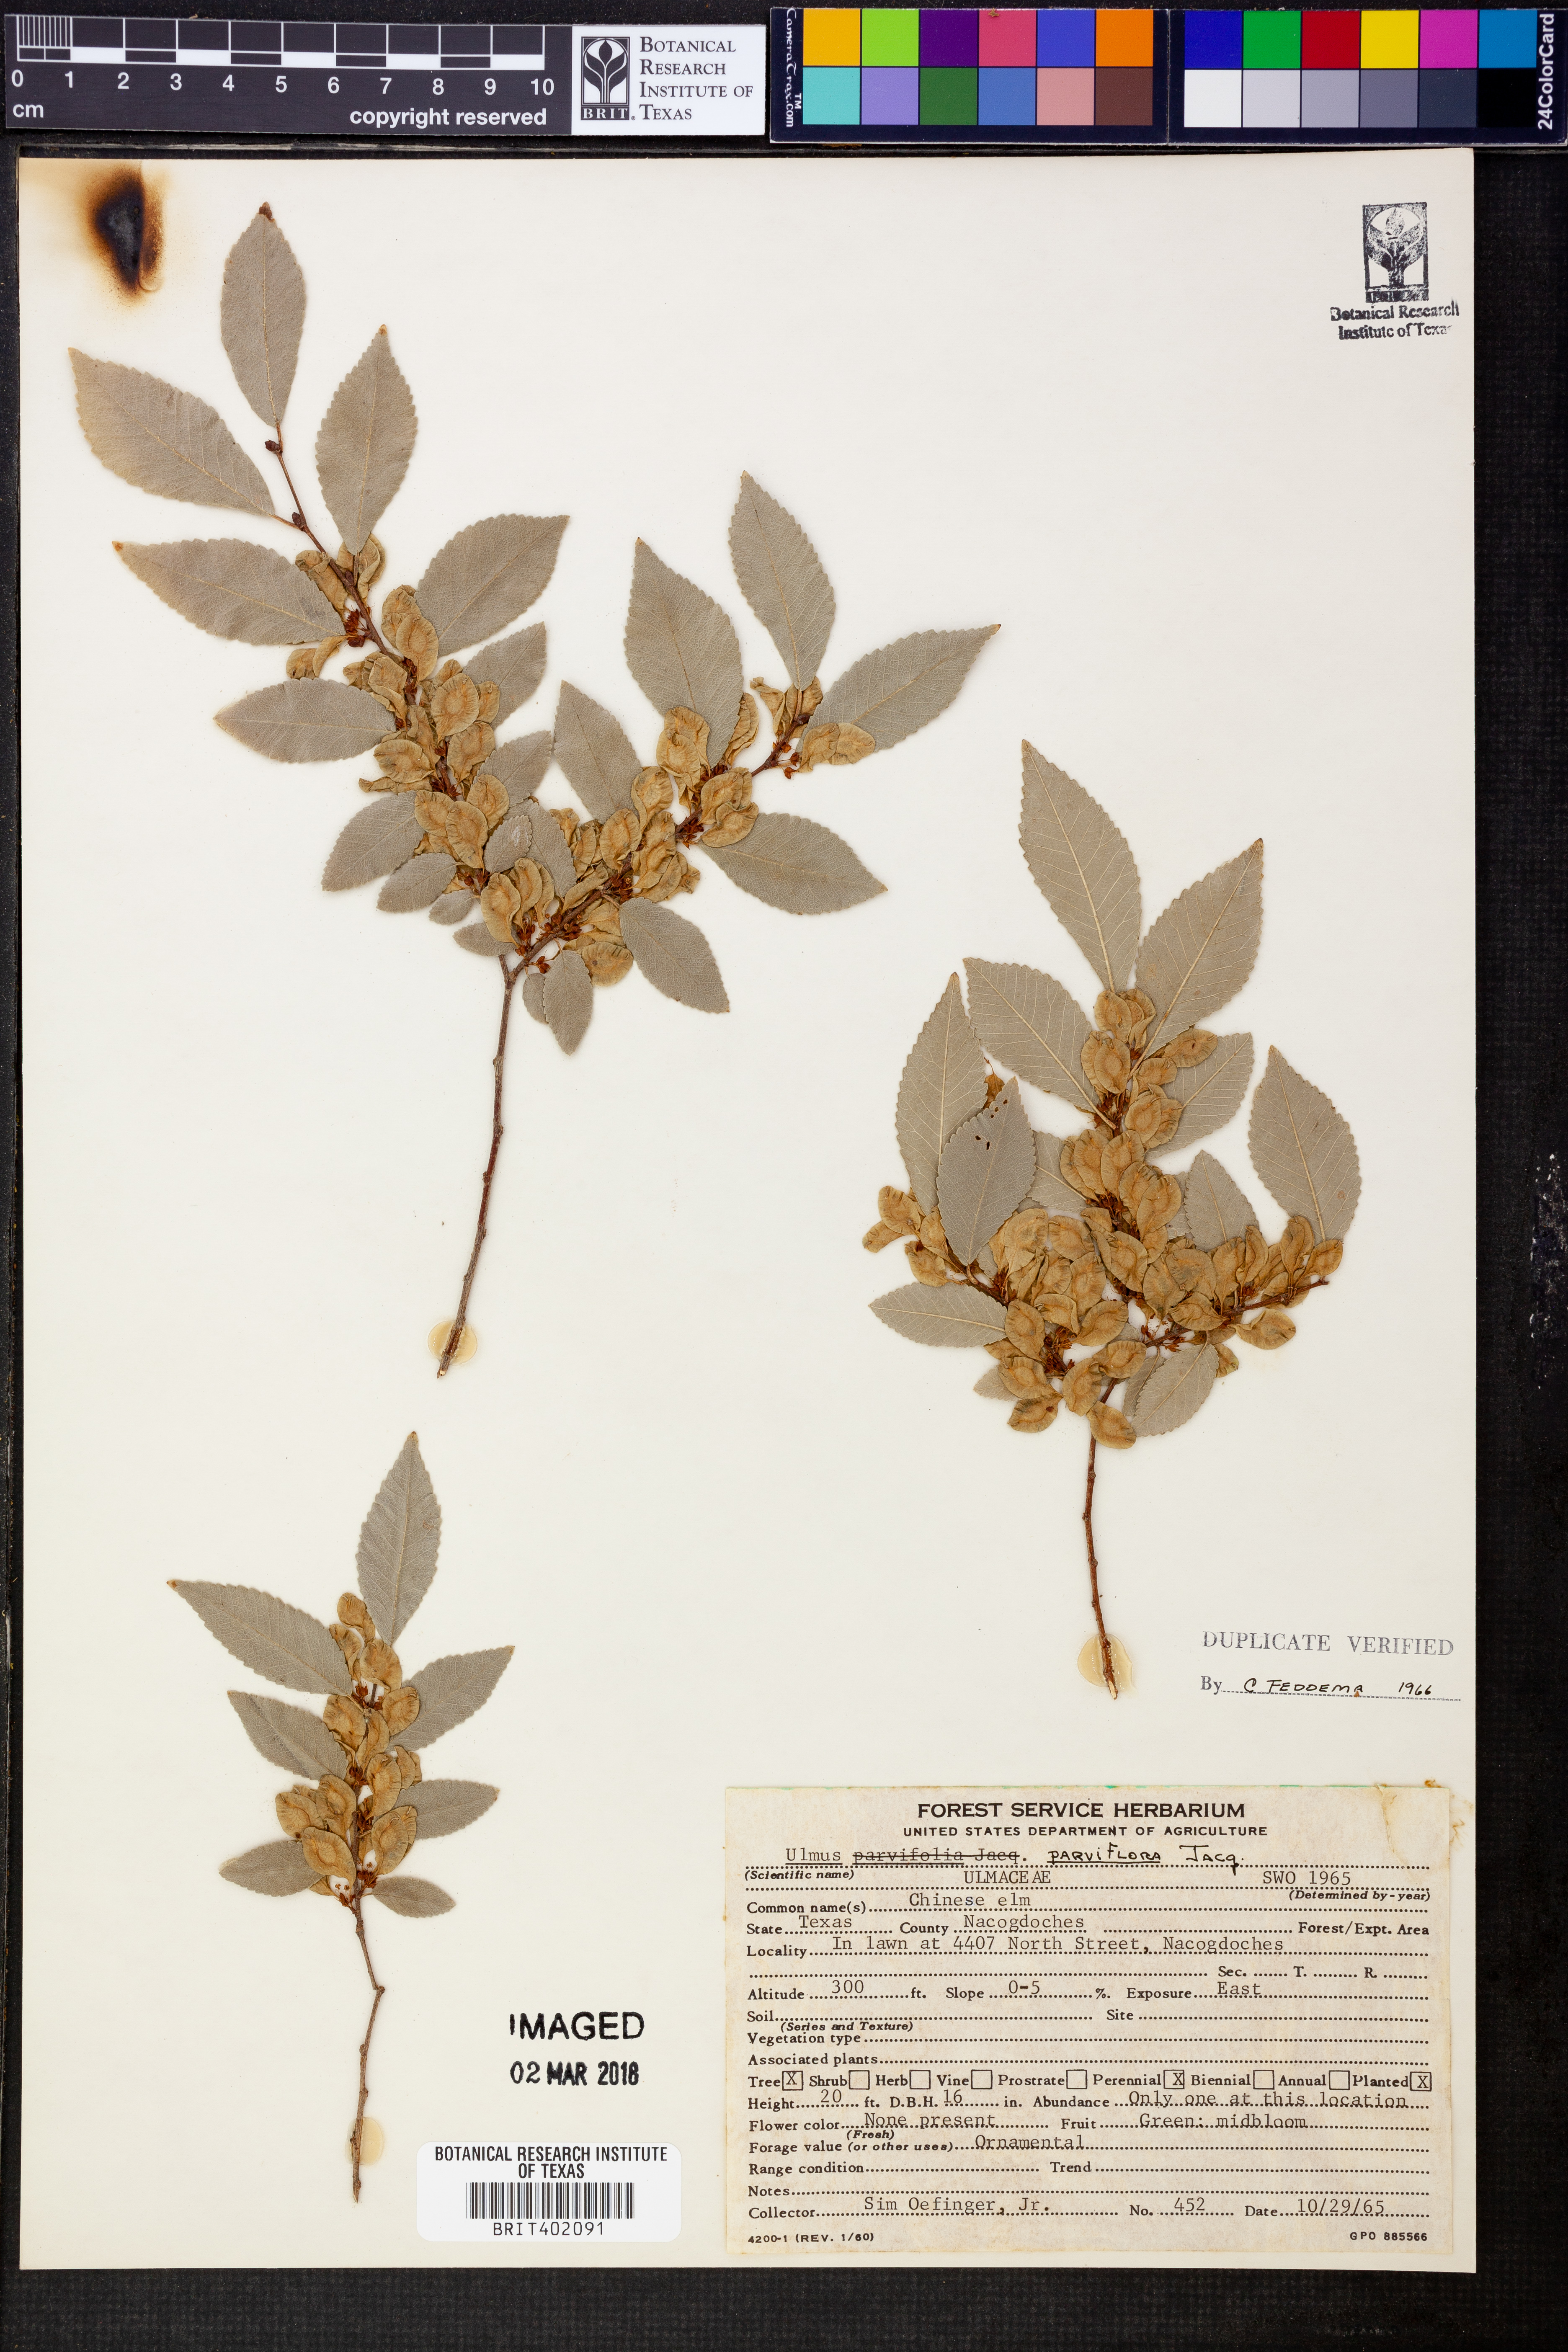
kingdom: Plantae
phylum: Tracheophyta
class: Magnoliopsida
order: Rosales
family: Ulmaceae
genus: Ulmus
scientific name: Ulmus parvifolia
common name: Chinese elm
